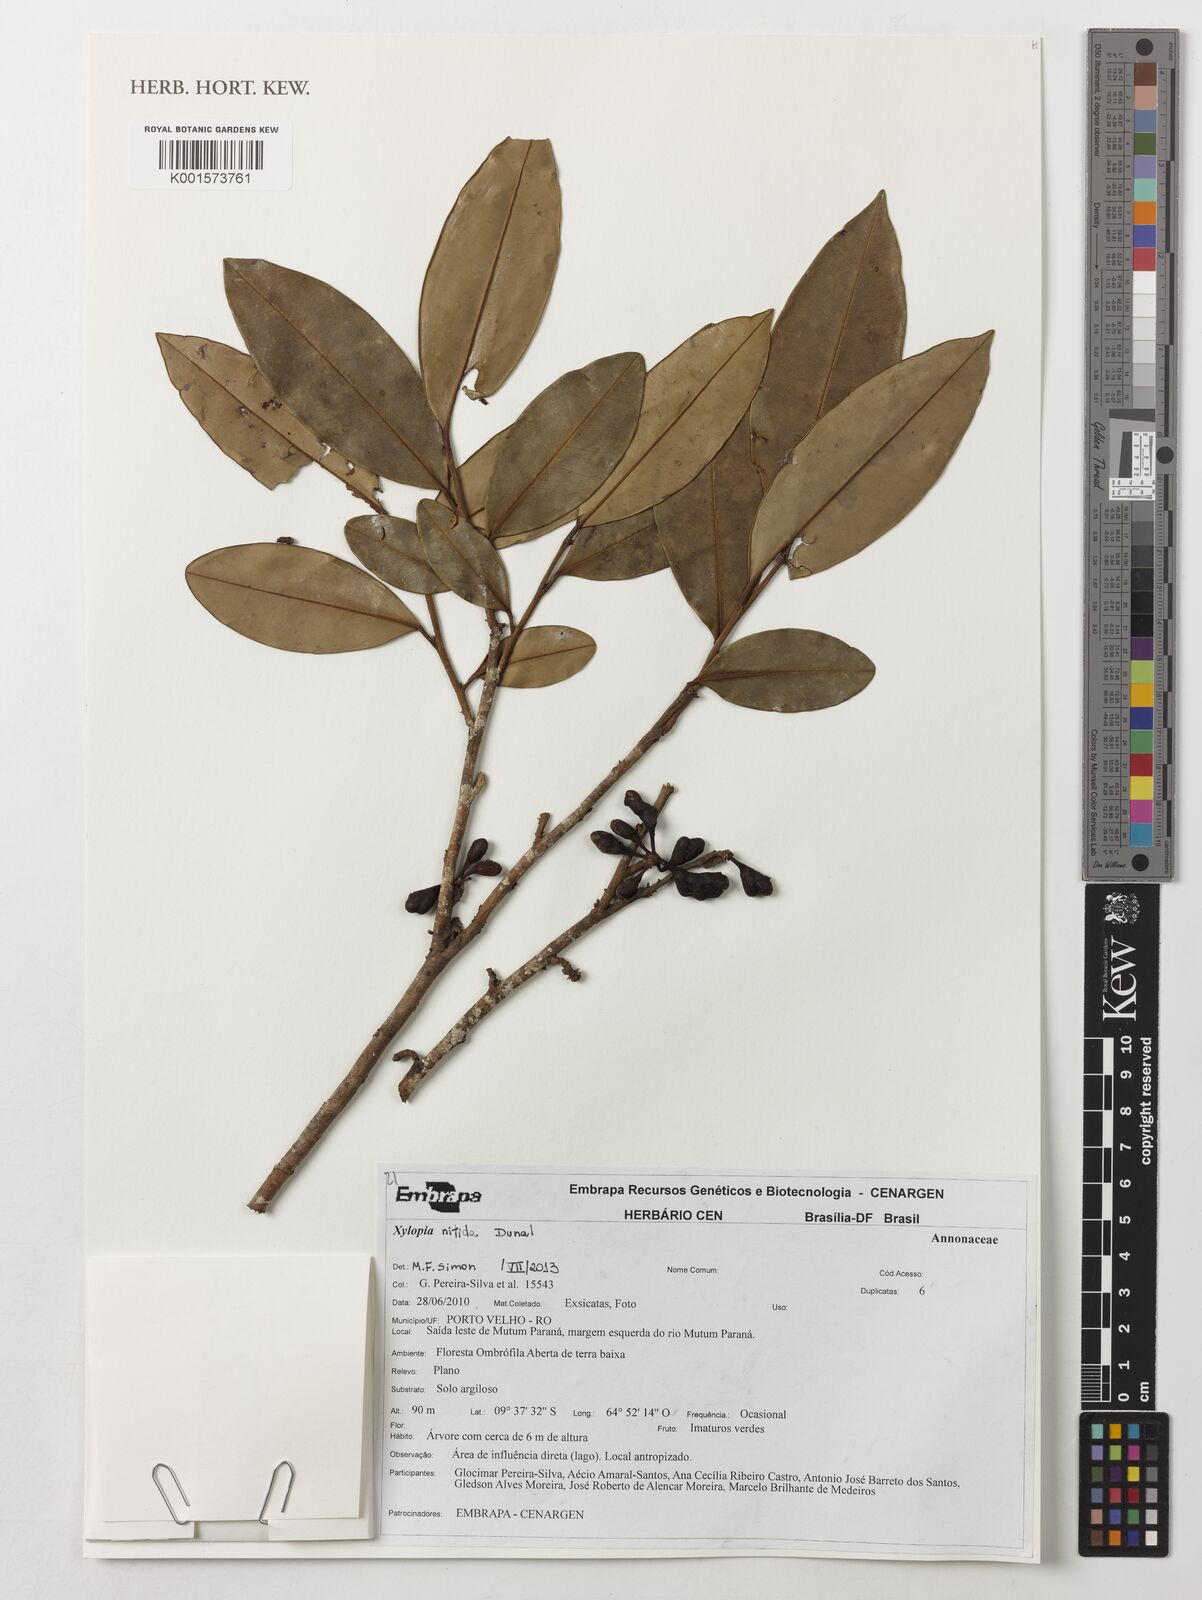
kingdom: Plantae
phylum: Tracheophyta
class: Magnoliopsida
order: Magnoliales
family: Annonaceae
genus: Xylopia
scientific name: Xylopia nitida
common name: White kuyama
